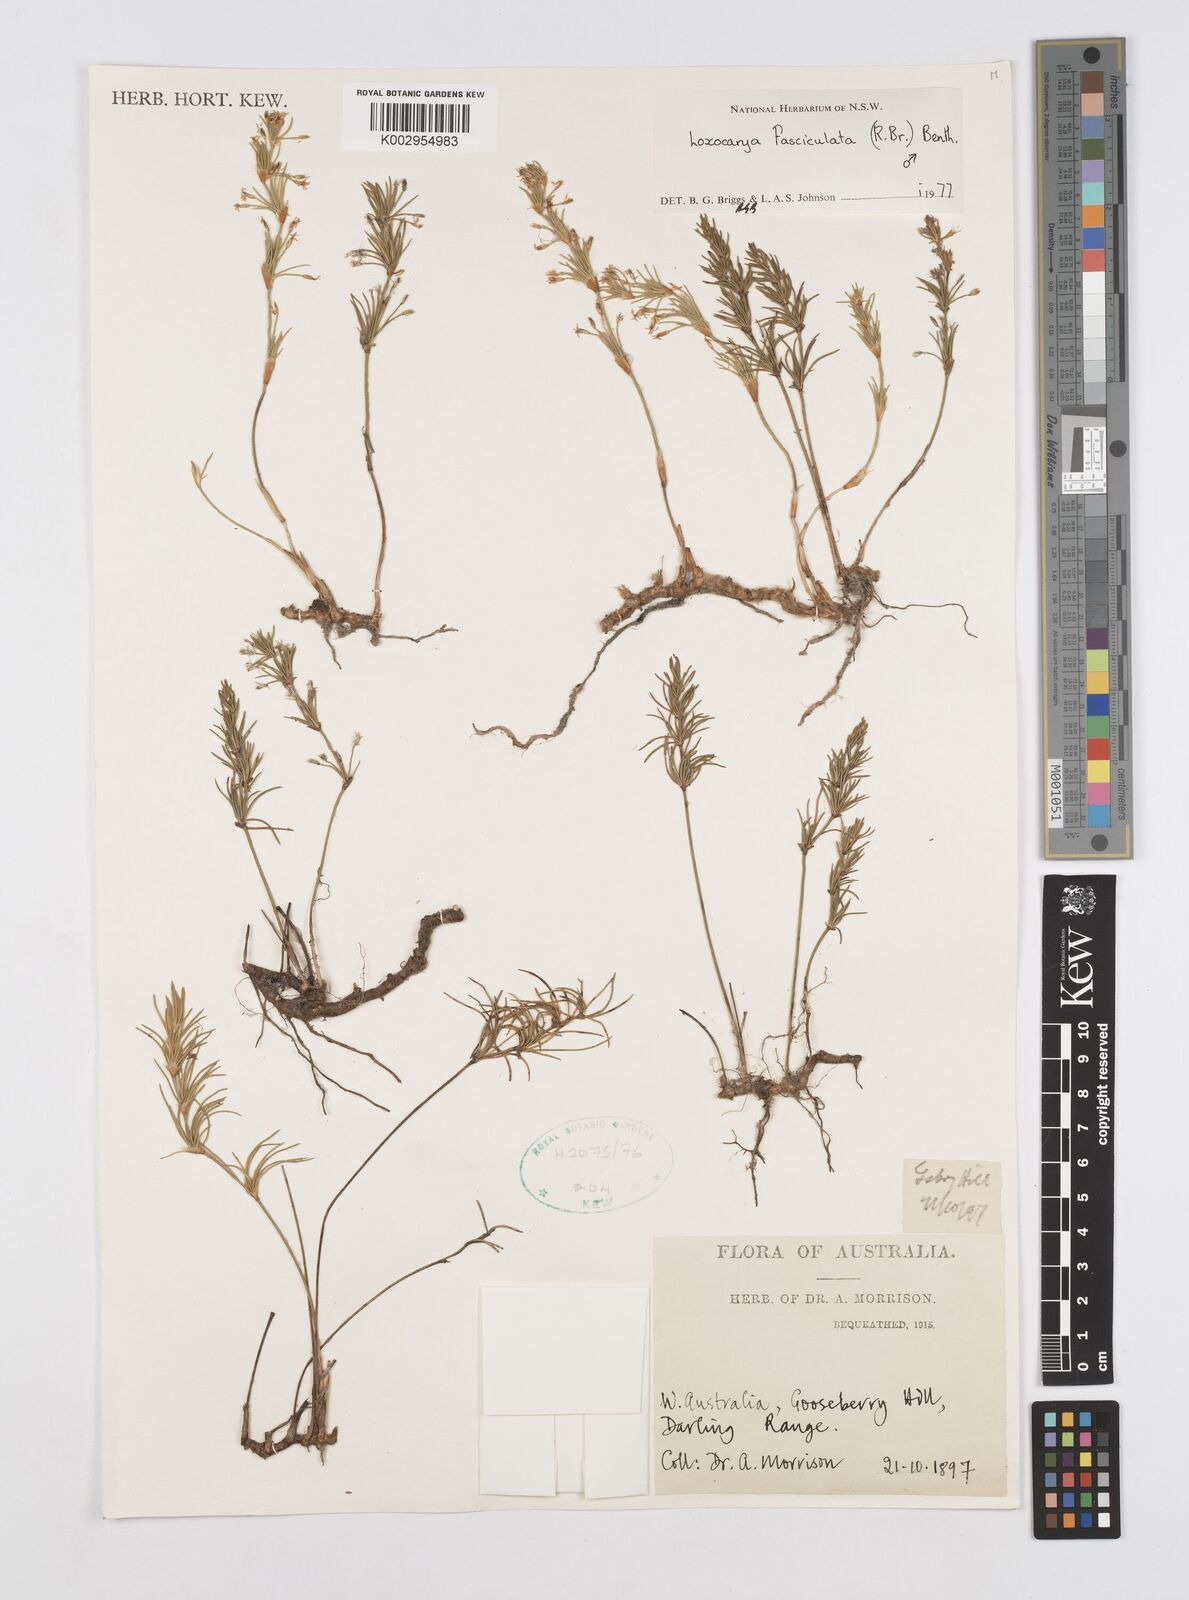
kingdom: Plantae
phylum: Tracheophyta
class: Liliopsida
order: Poales
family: Restionaceae
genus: Desmocladus
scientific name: Desmocladus fasciculatus
